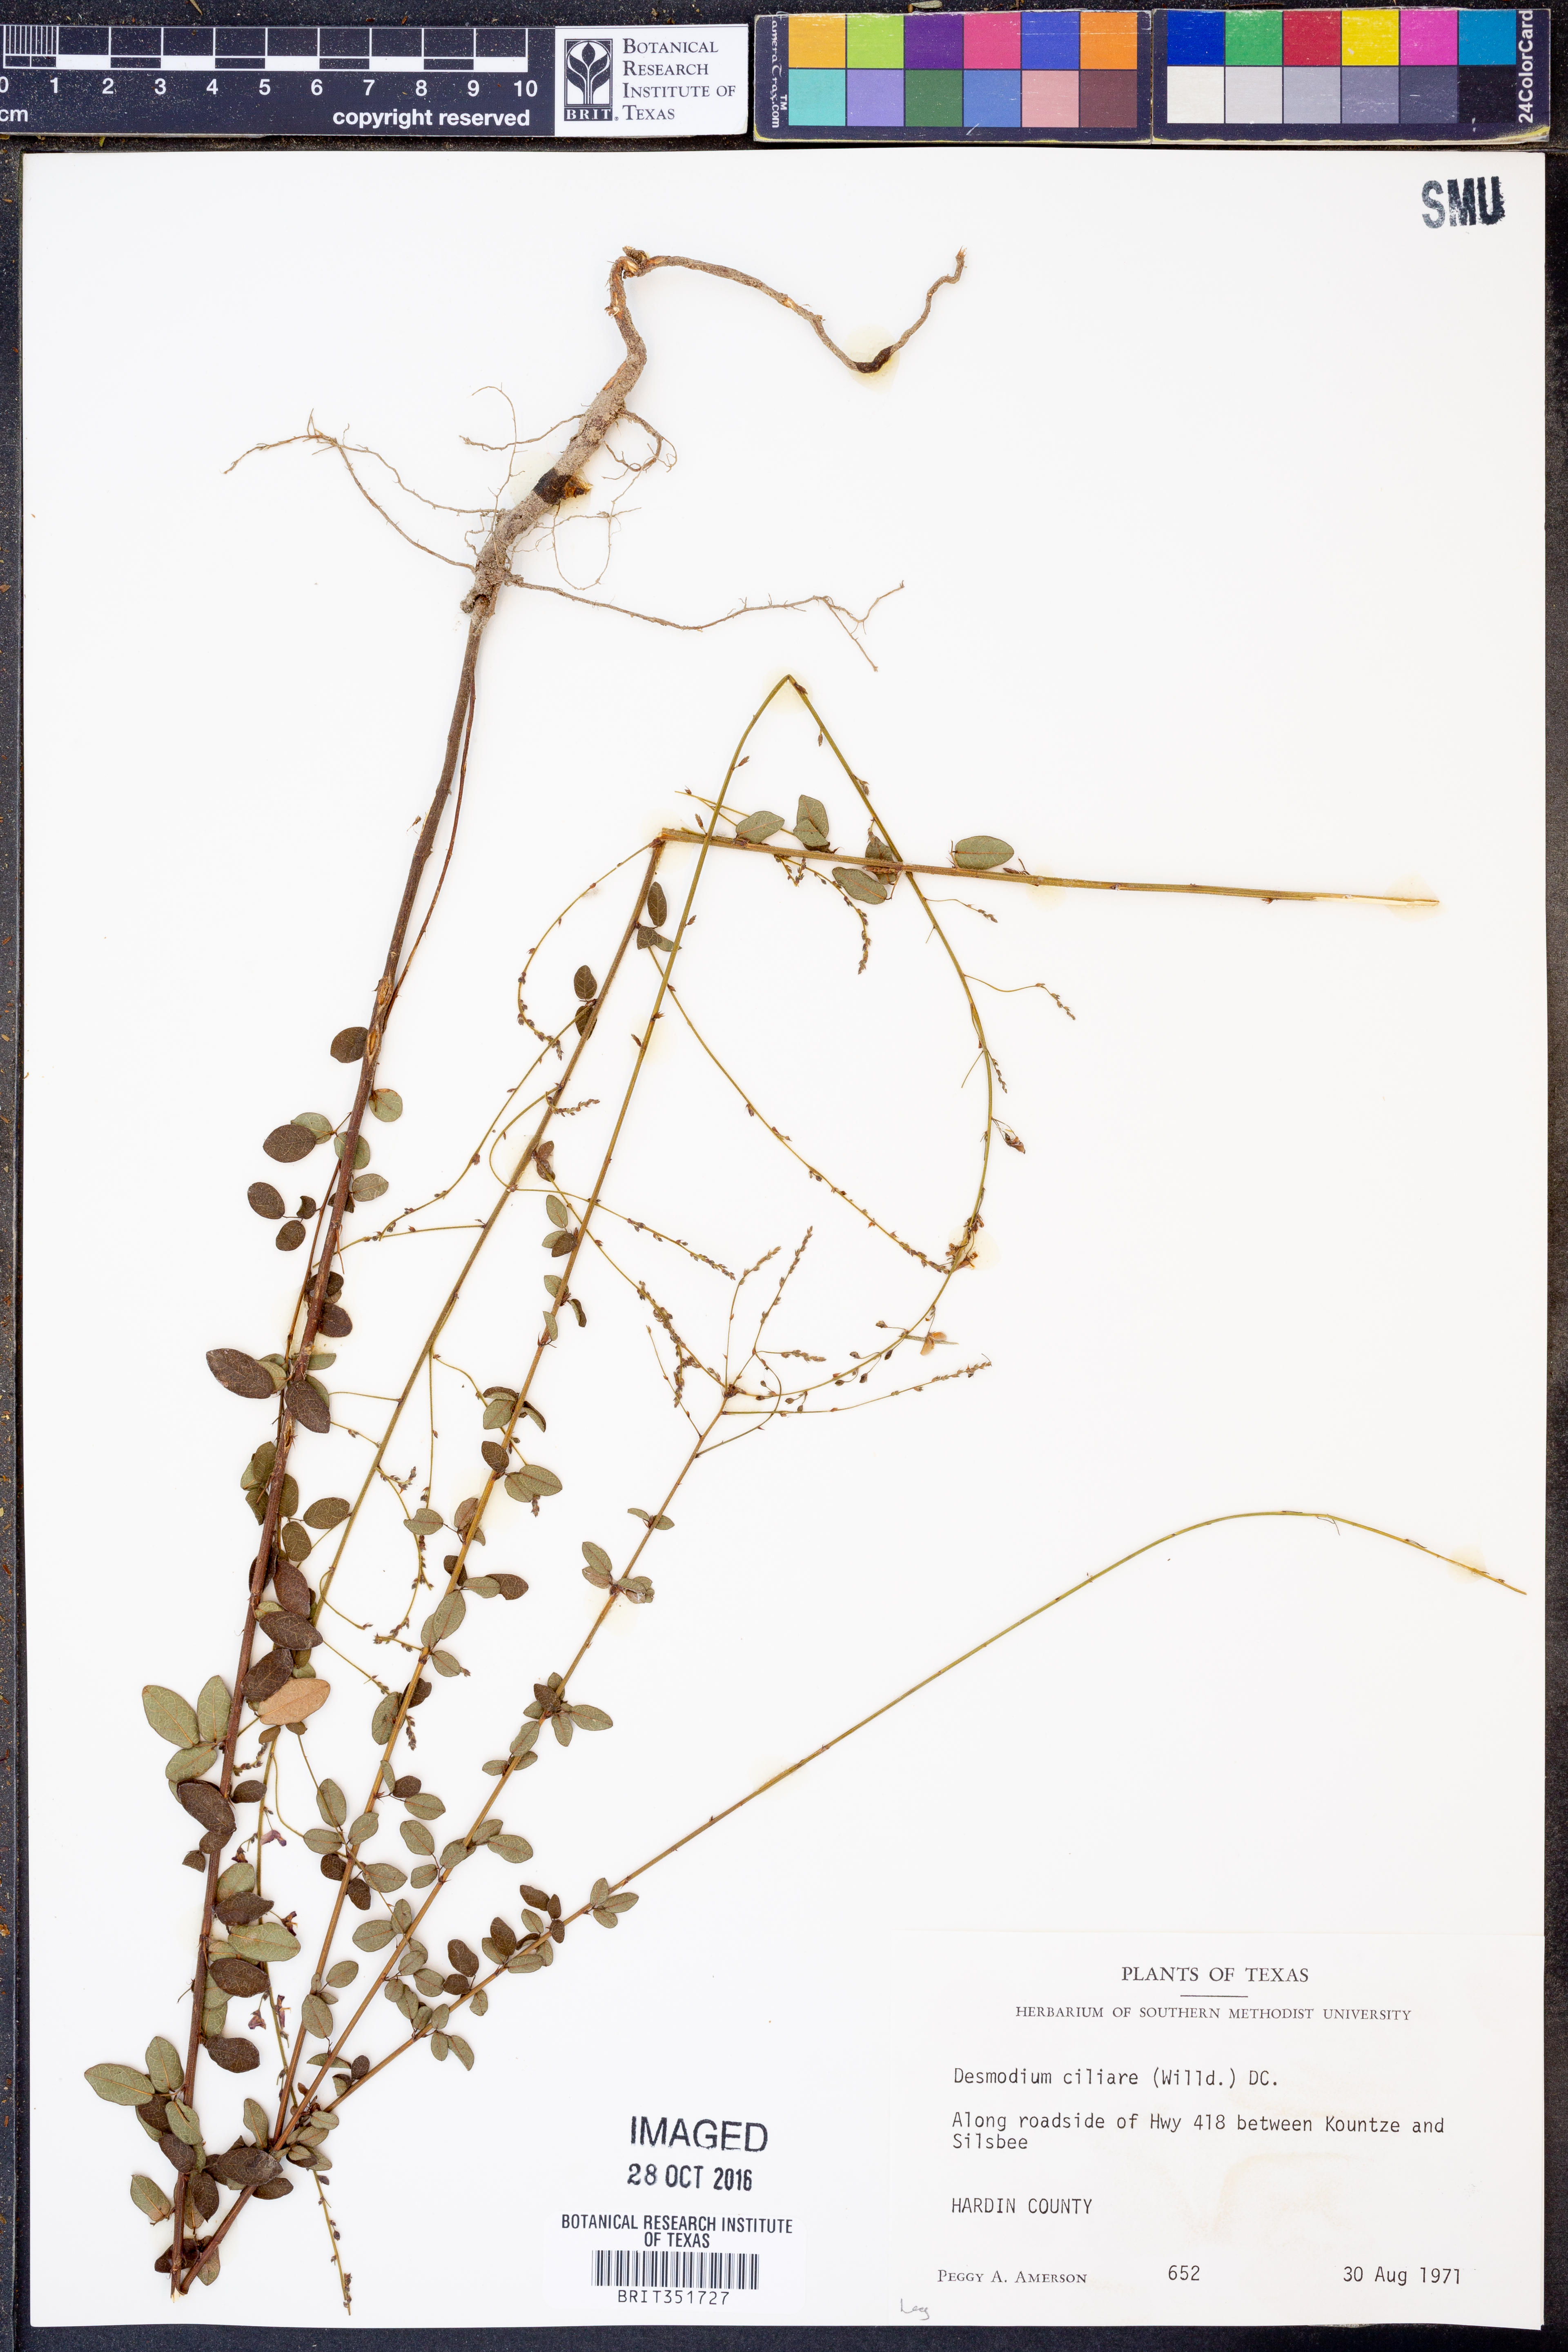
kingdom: Plantae
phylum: Tracheophyta
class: Magnoliopsida
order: Fabales
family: Fabaceae
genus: Desmodium
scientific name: Desmodium ciliare
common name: Hairy small-leaf ticktrefoil
